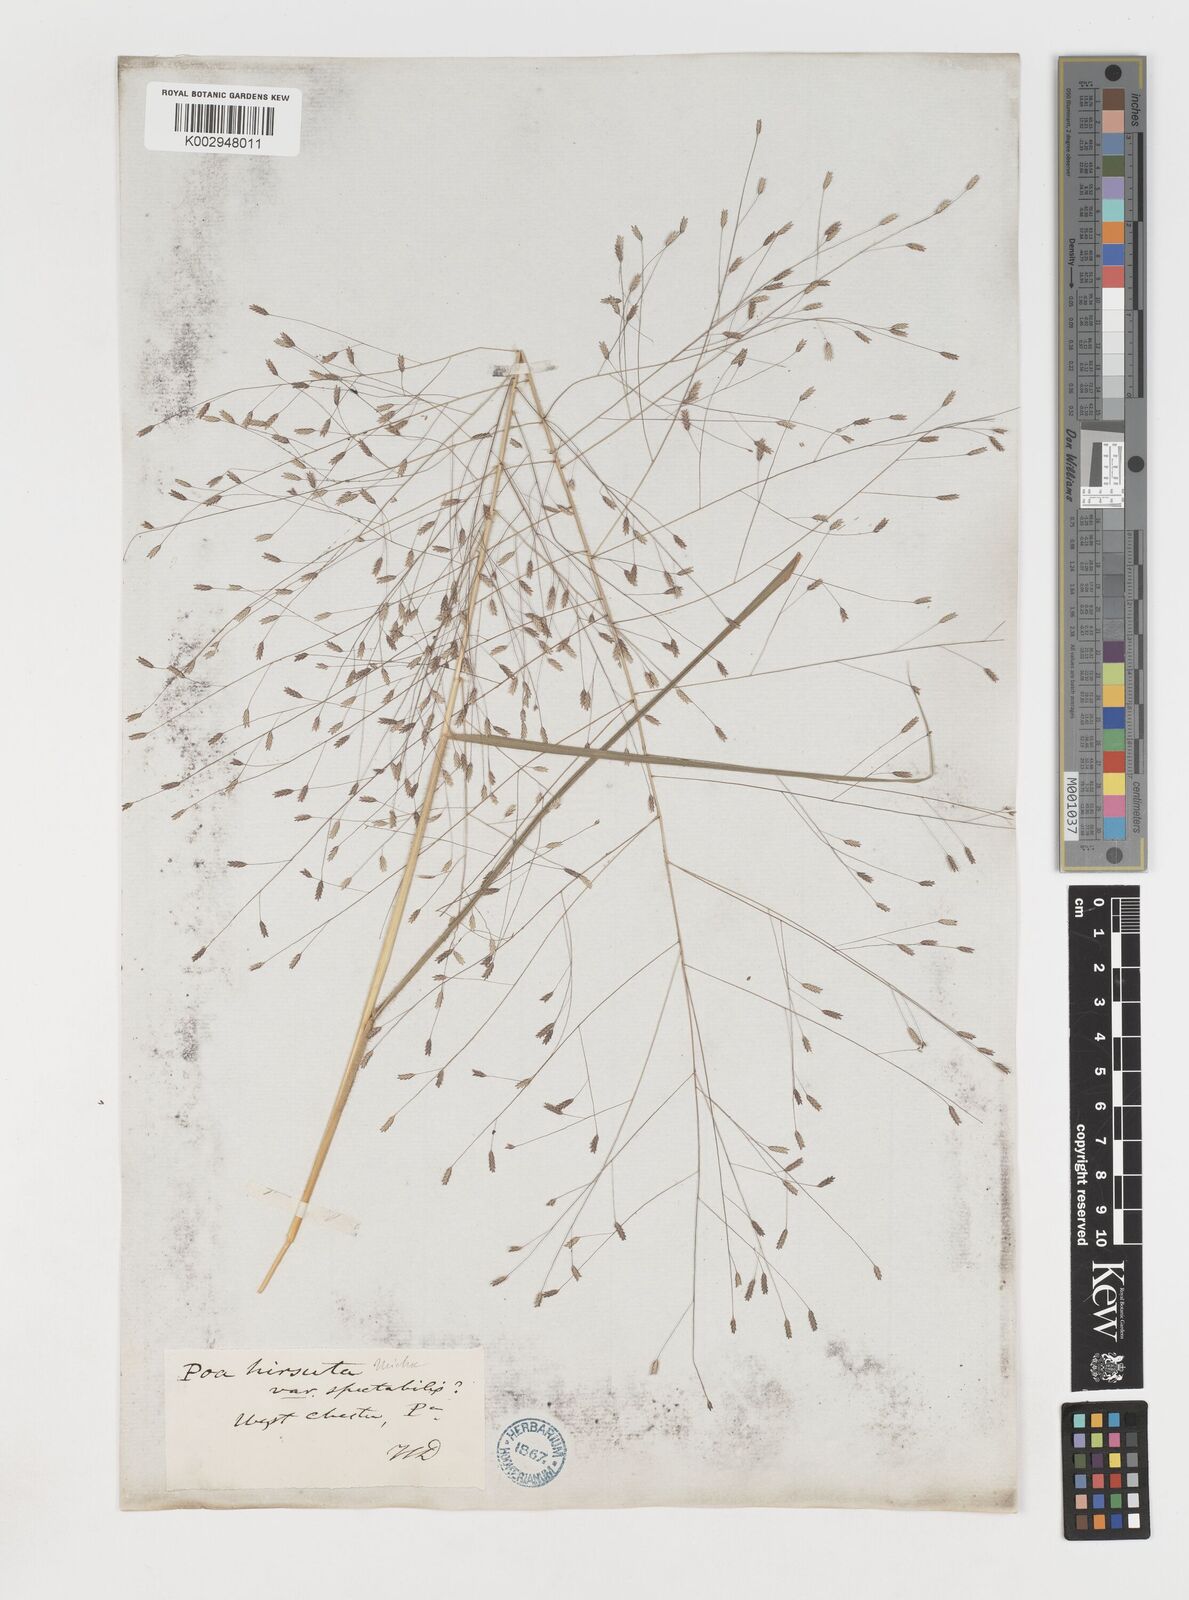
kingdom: Plantae
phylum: Tracheophyta
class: Liliopsida
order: Poales
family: Poaceae
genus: Eragrostis
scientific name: Eragrostis spectabilis
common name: Petticoat-climber
